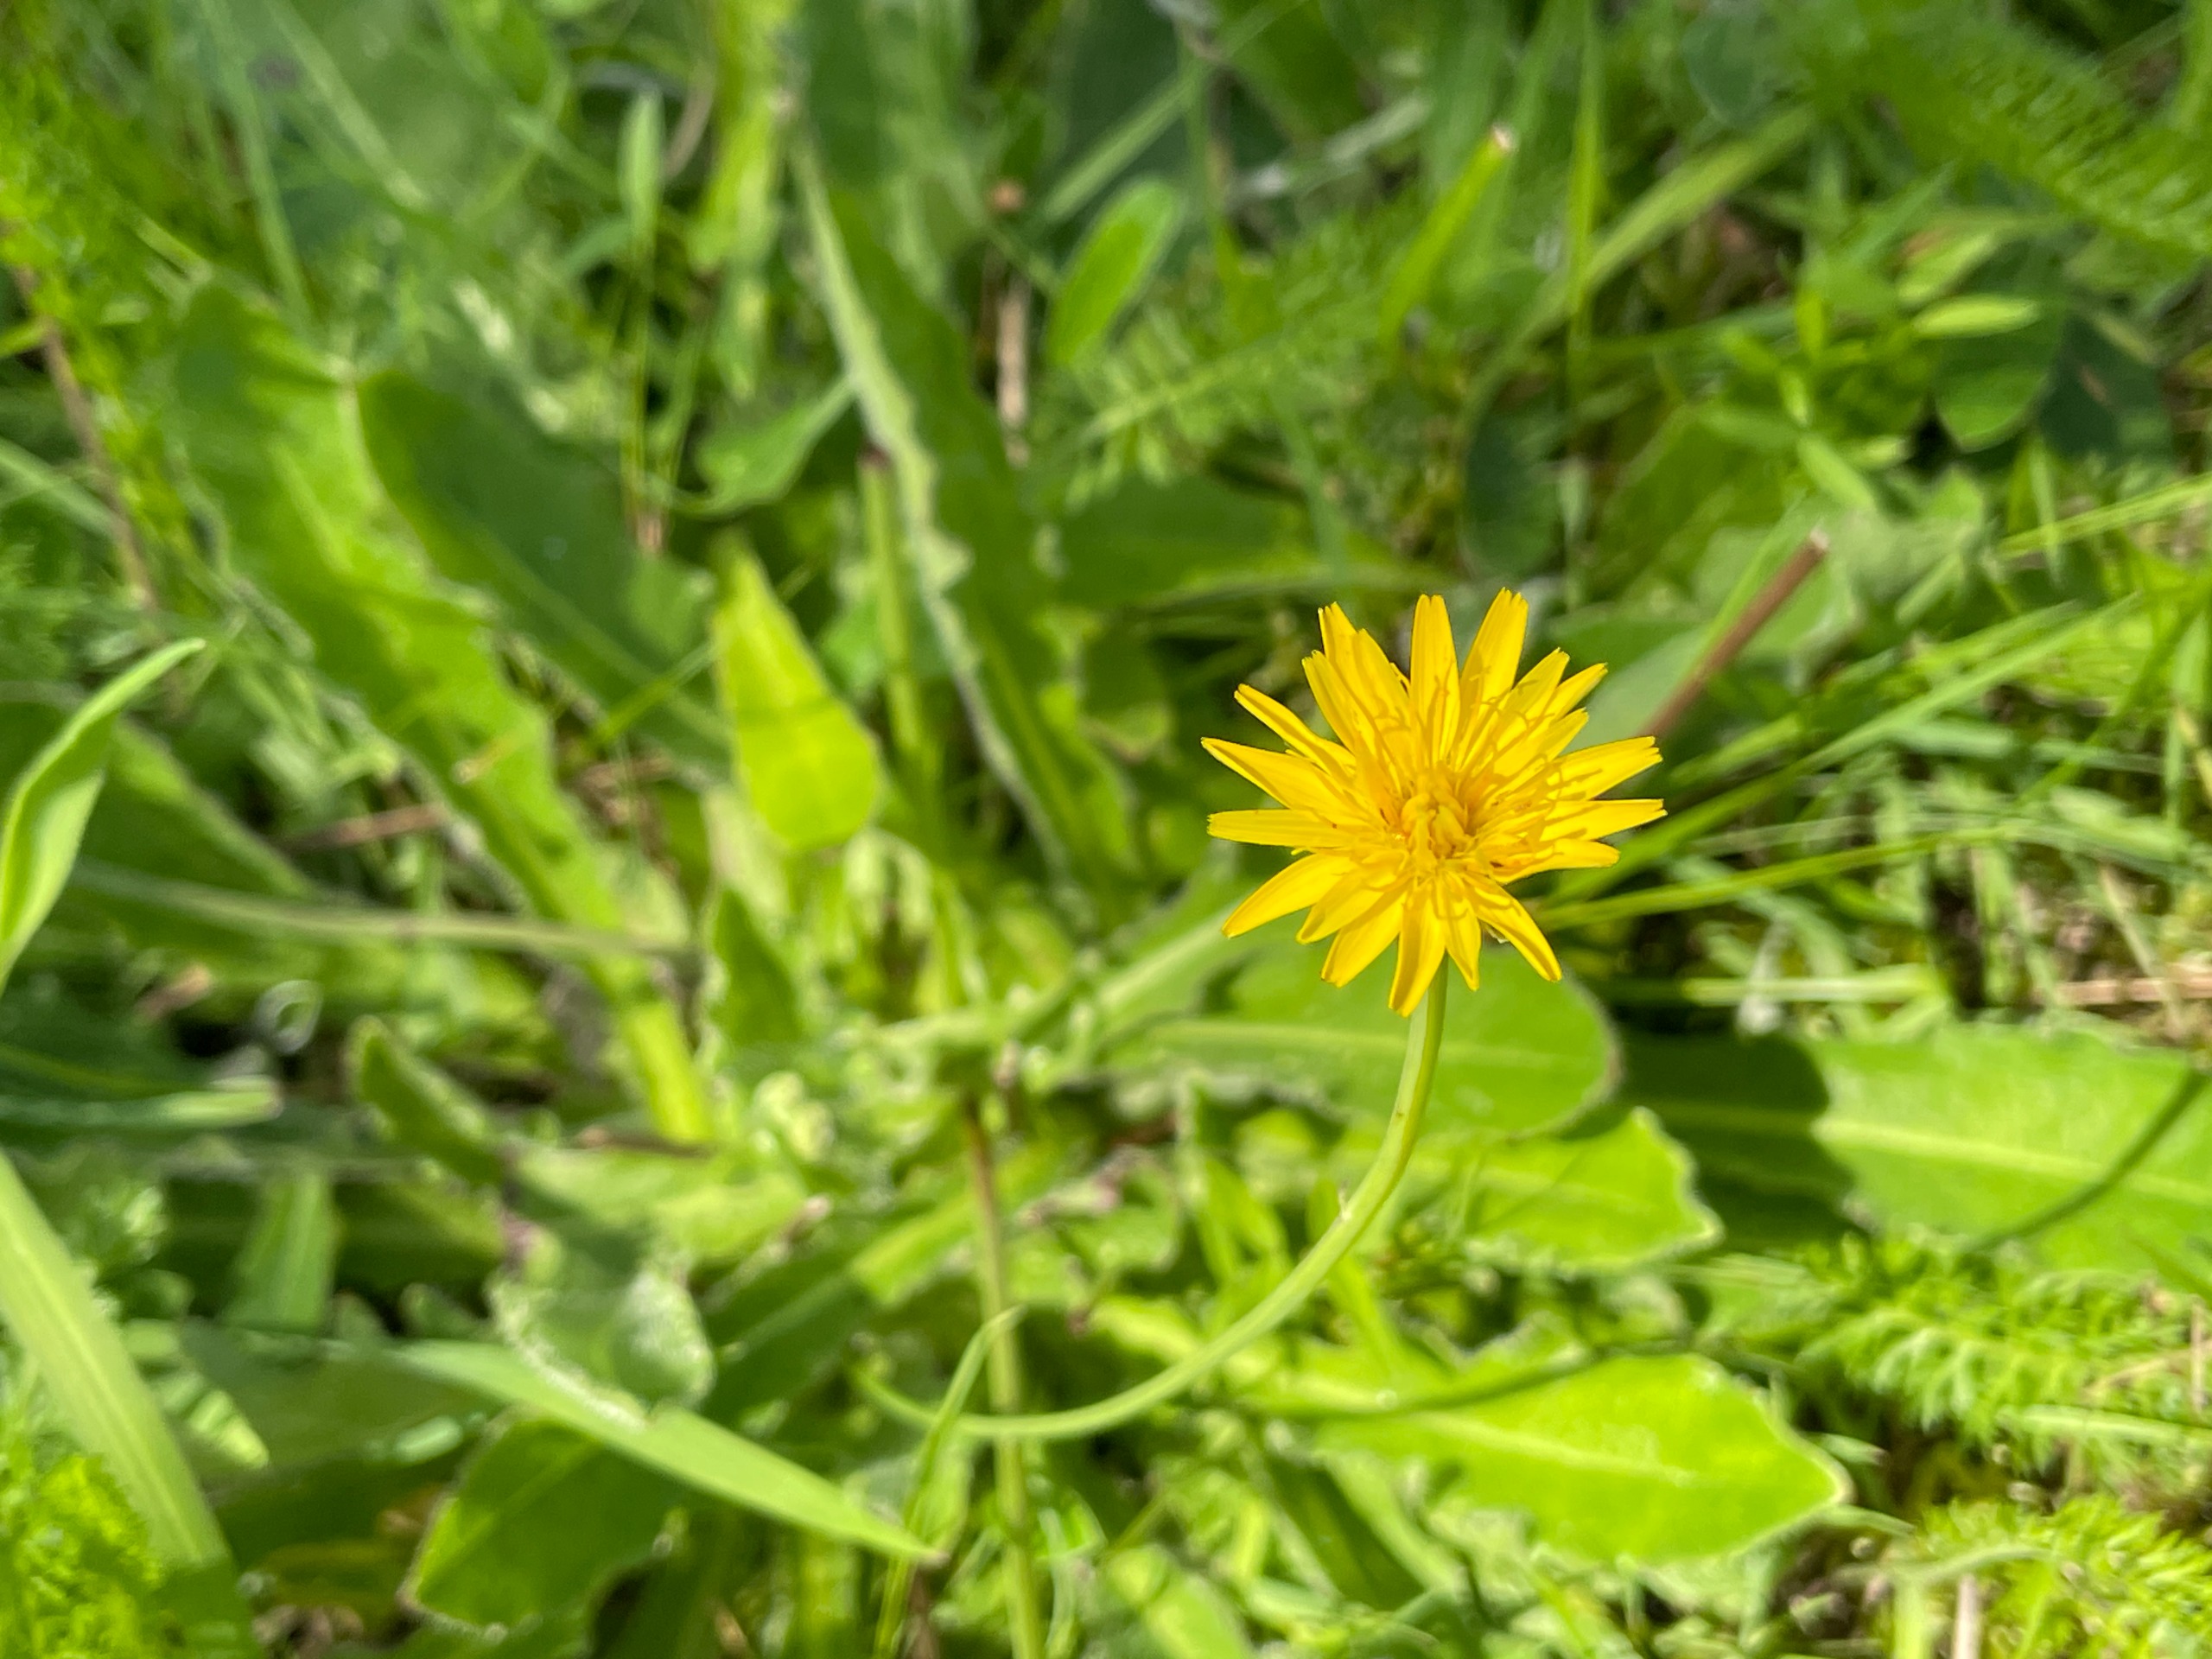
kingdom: Plantae
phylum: Tracheophyta
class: Magnoliopsida
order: Asterales
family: Asteraceae
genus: Hypochaeris
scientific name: Hypochaeris radicata
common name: Almindelig kongepen
